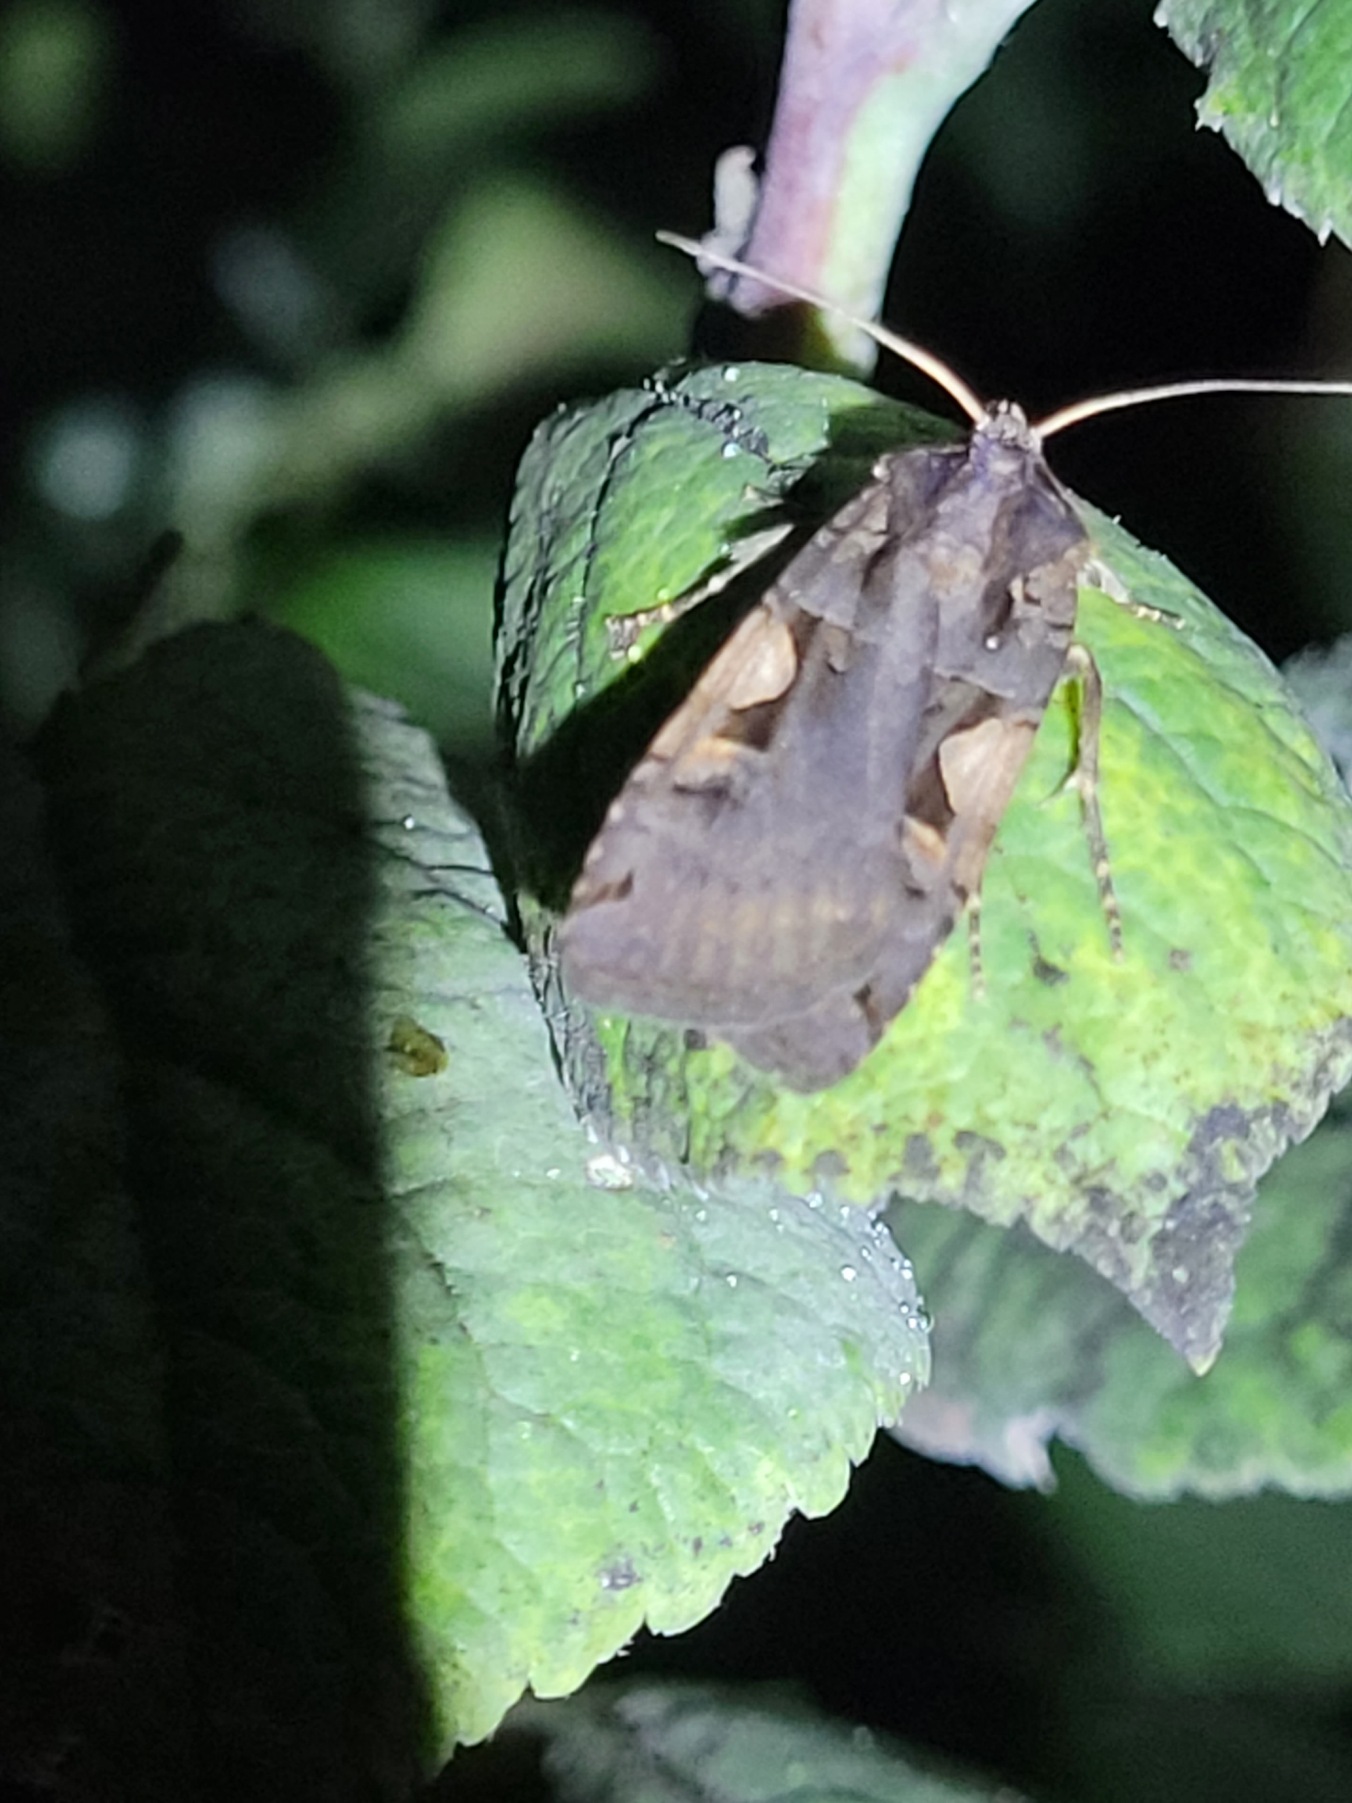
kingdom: Animalia
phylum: Arthropoda
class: Insecta
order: Lepidoptera
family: Noctuidae
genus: Xestia
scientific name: Xestia c-nigrum
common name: Det sorte c
